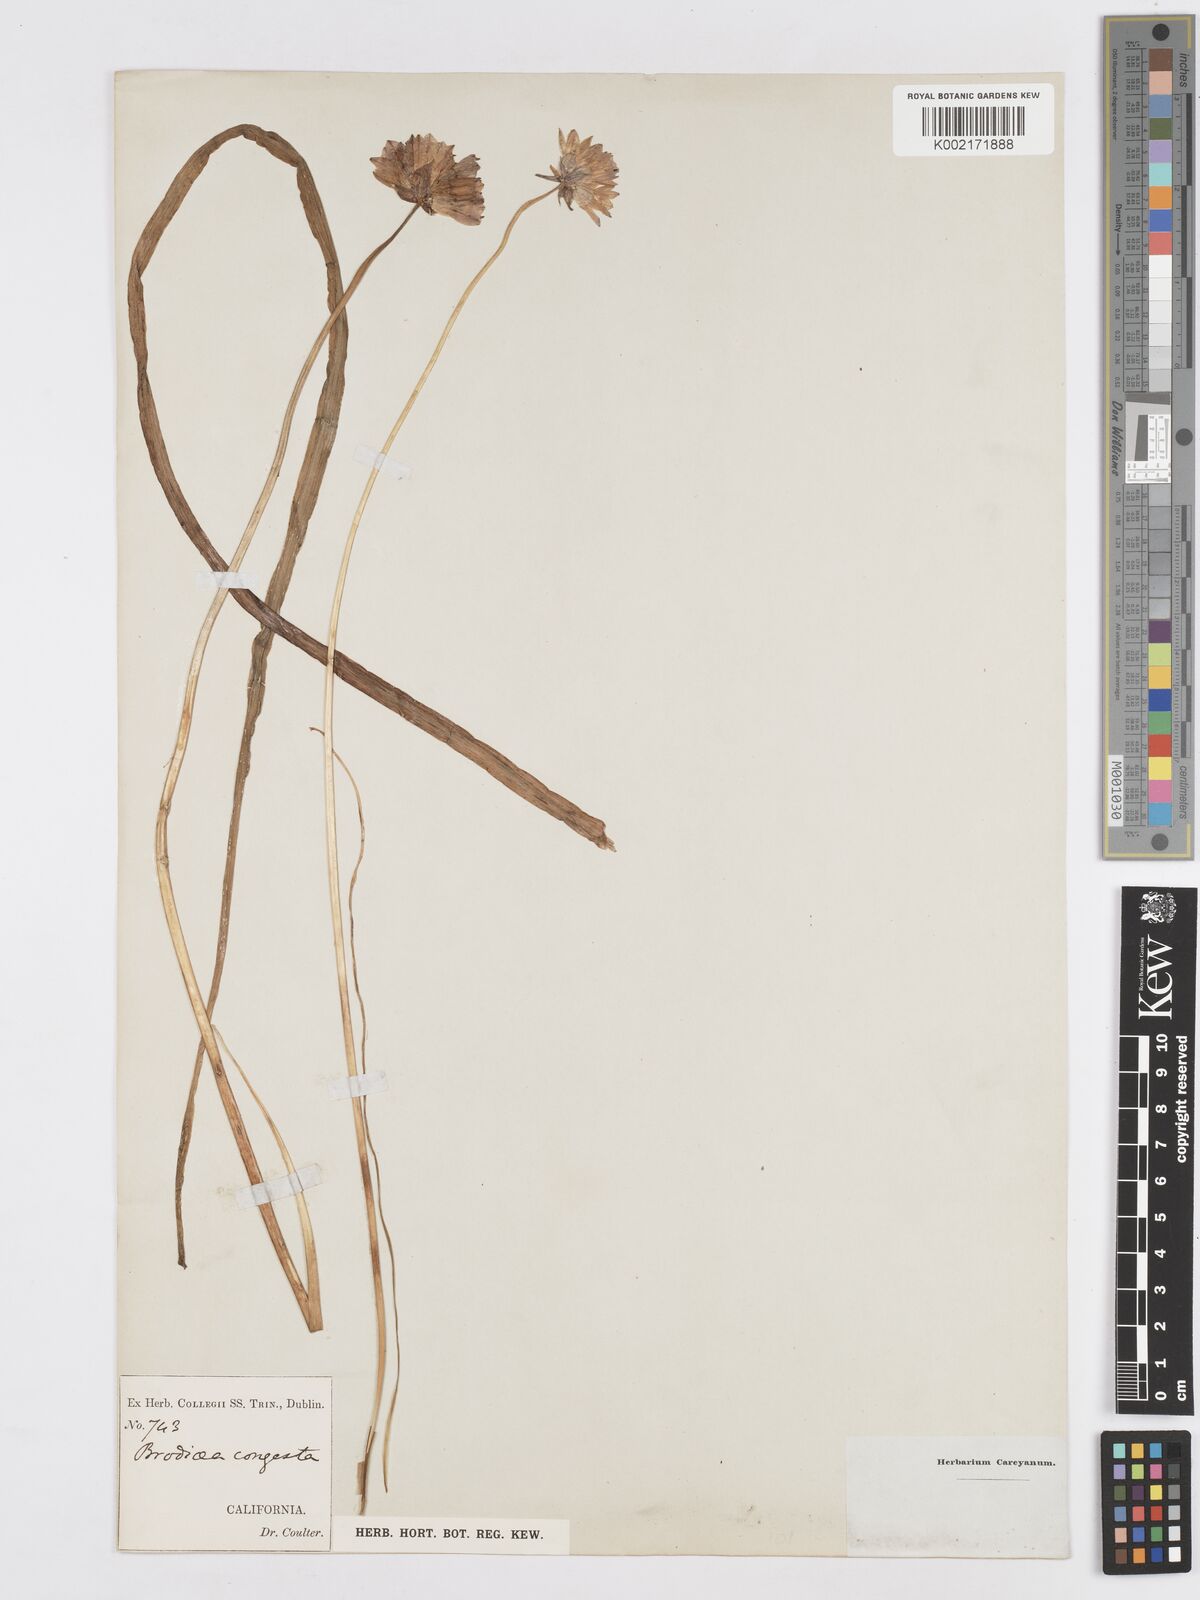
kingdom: Plantae
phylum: Tracheophyta
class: Liliopsida
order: Asparagales
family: Asparagaceae
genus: Dichelostemma
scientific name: Dichelostemma congestum
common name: Fork-tooth ookow
